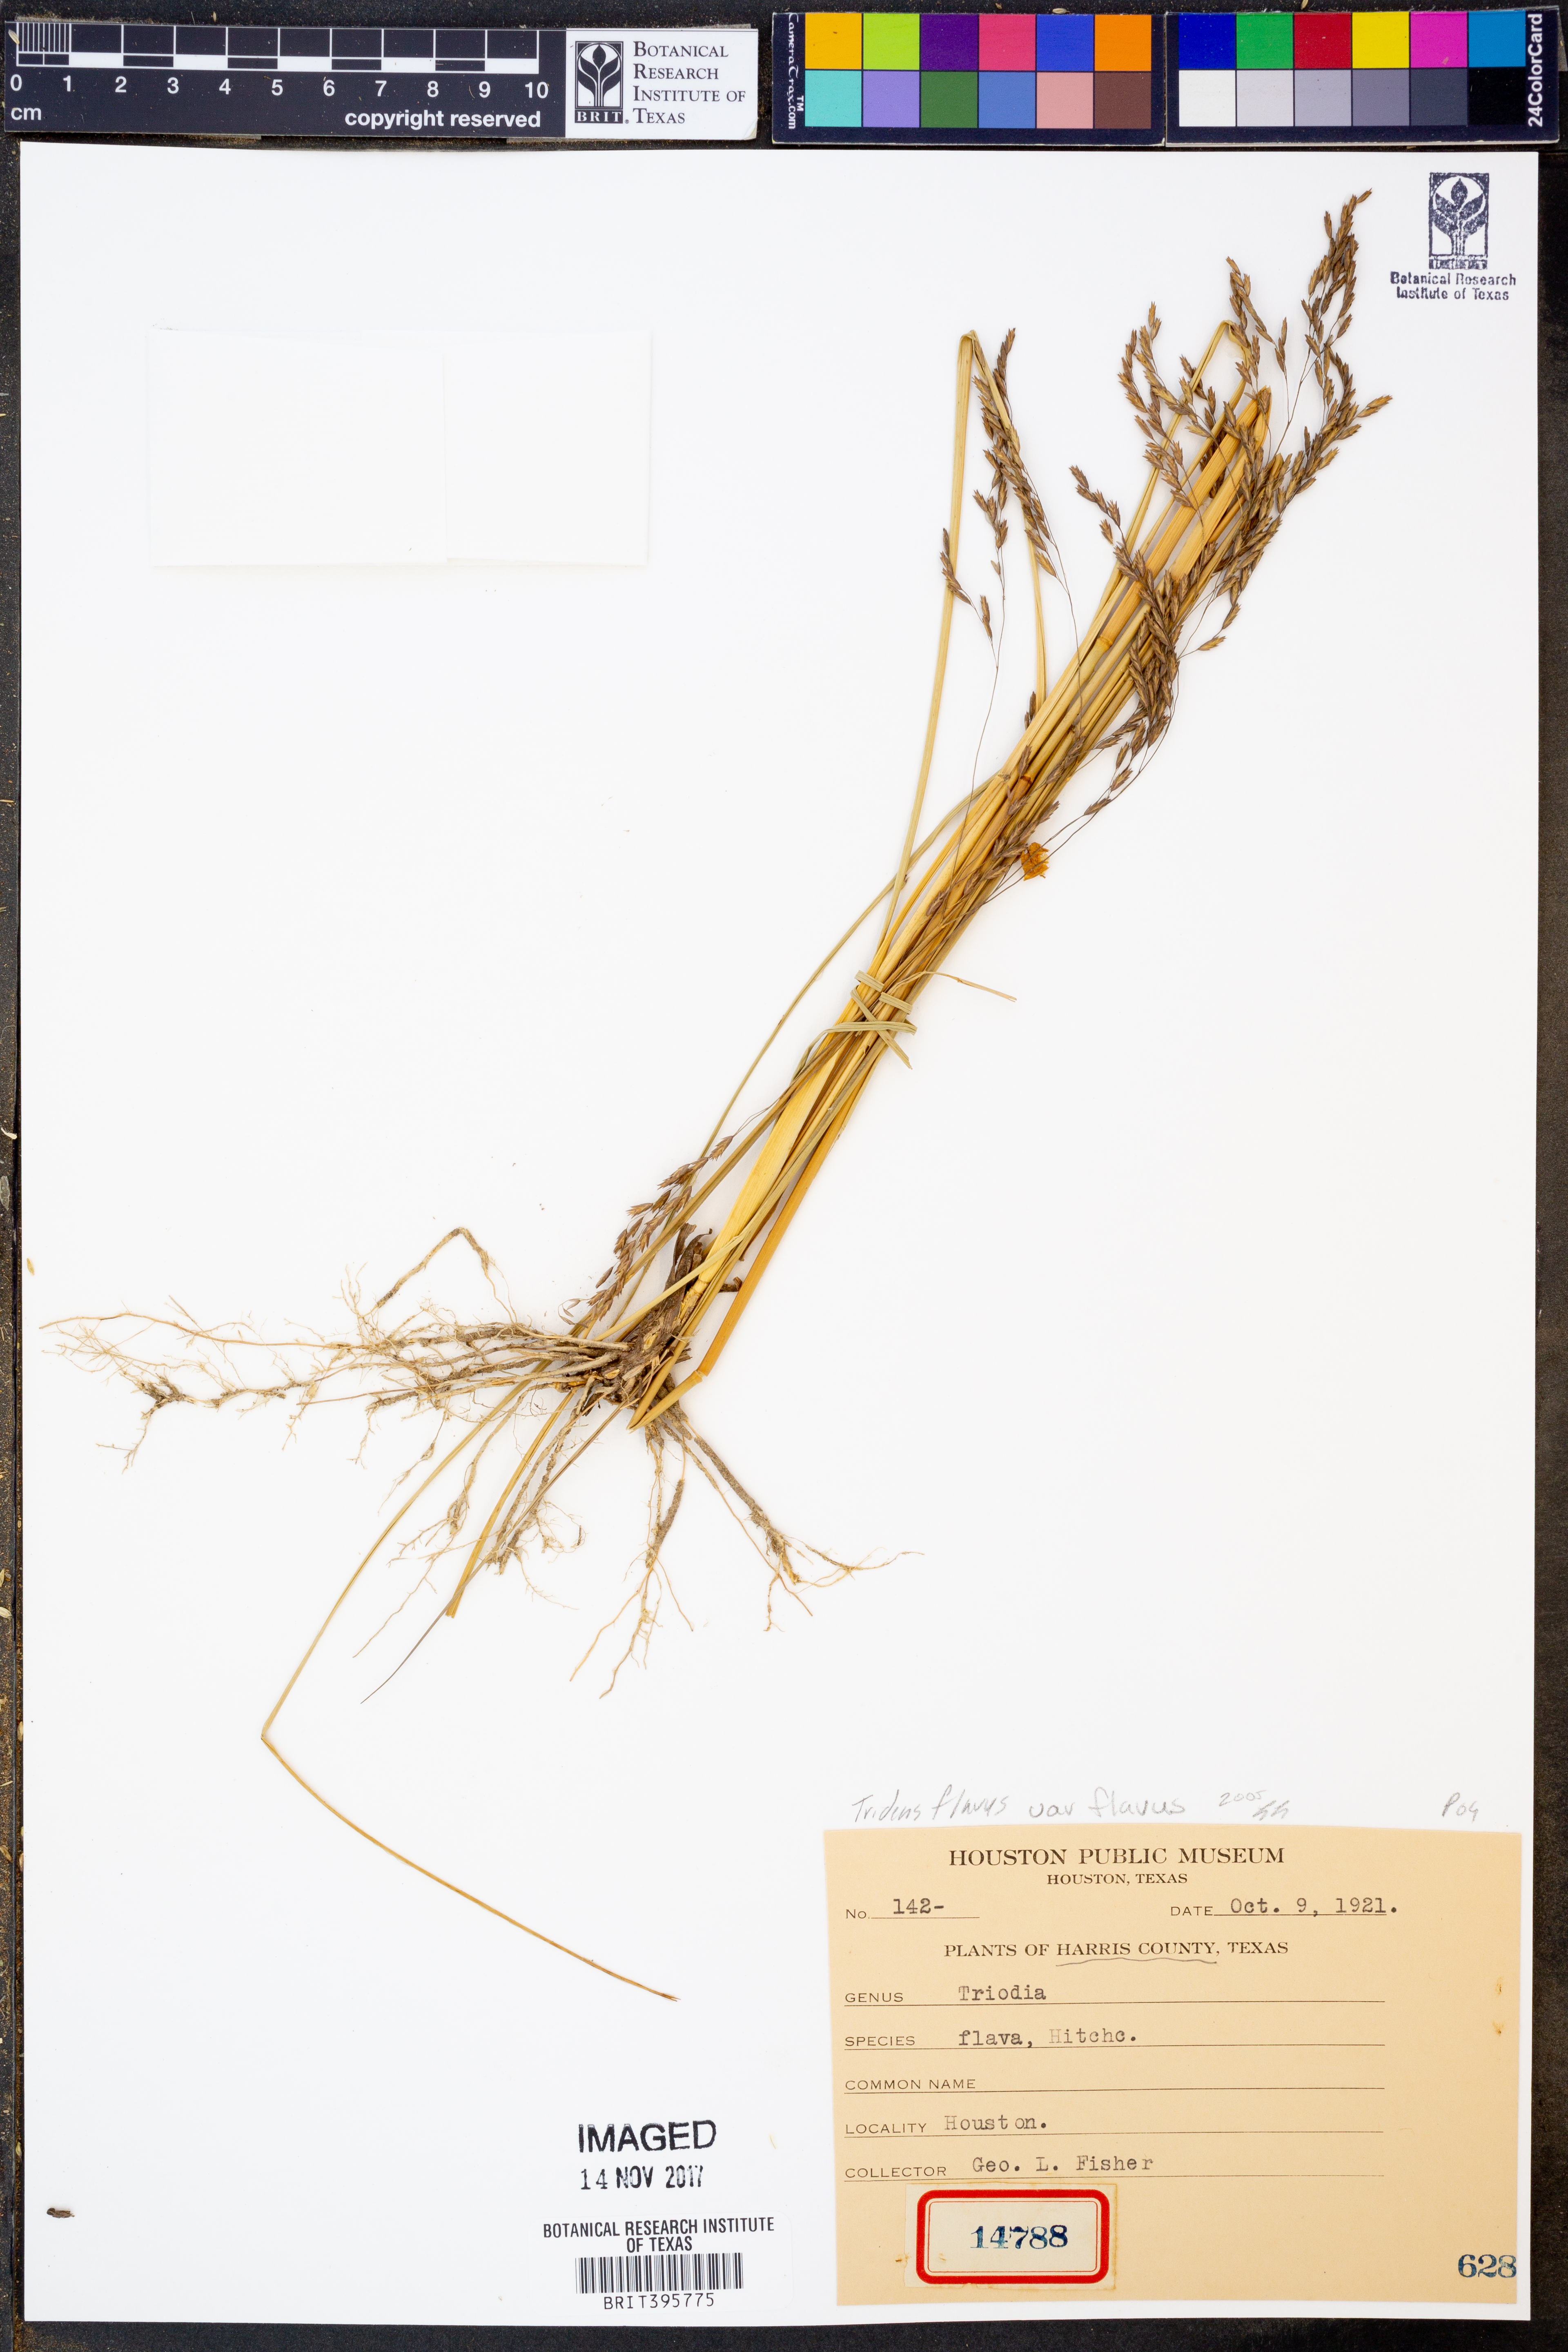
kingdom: Plantae
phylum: Tracheophyta
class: Liliopsida
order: Poales
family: Poaceae
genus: Tridens
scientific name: Tridens flavus
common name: Purpletop
